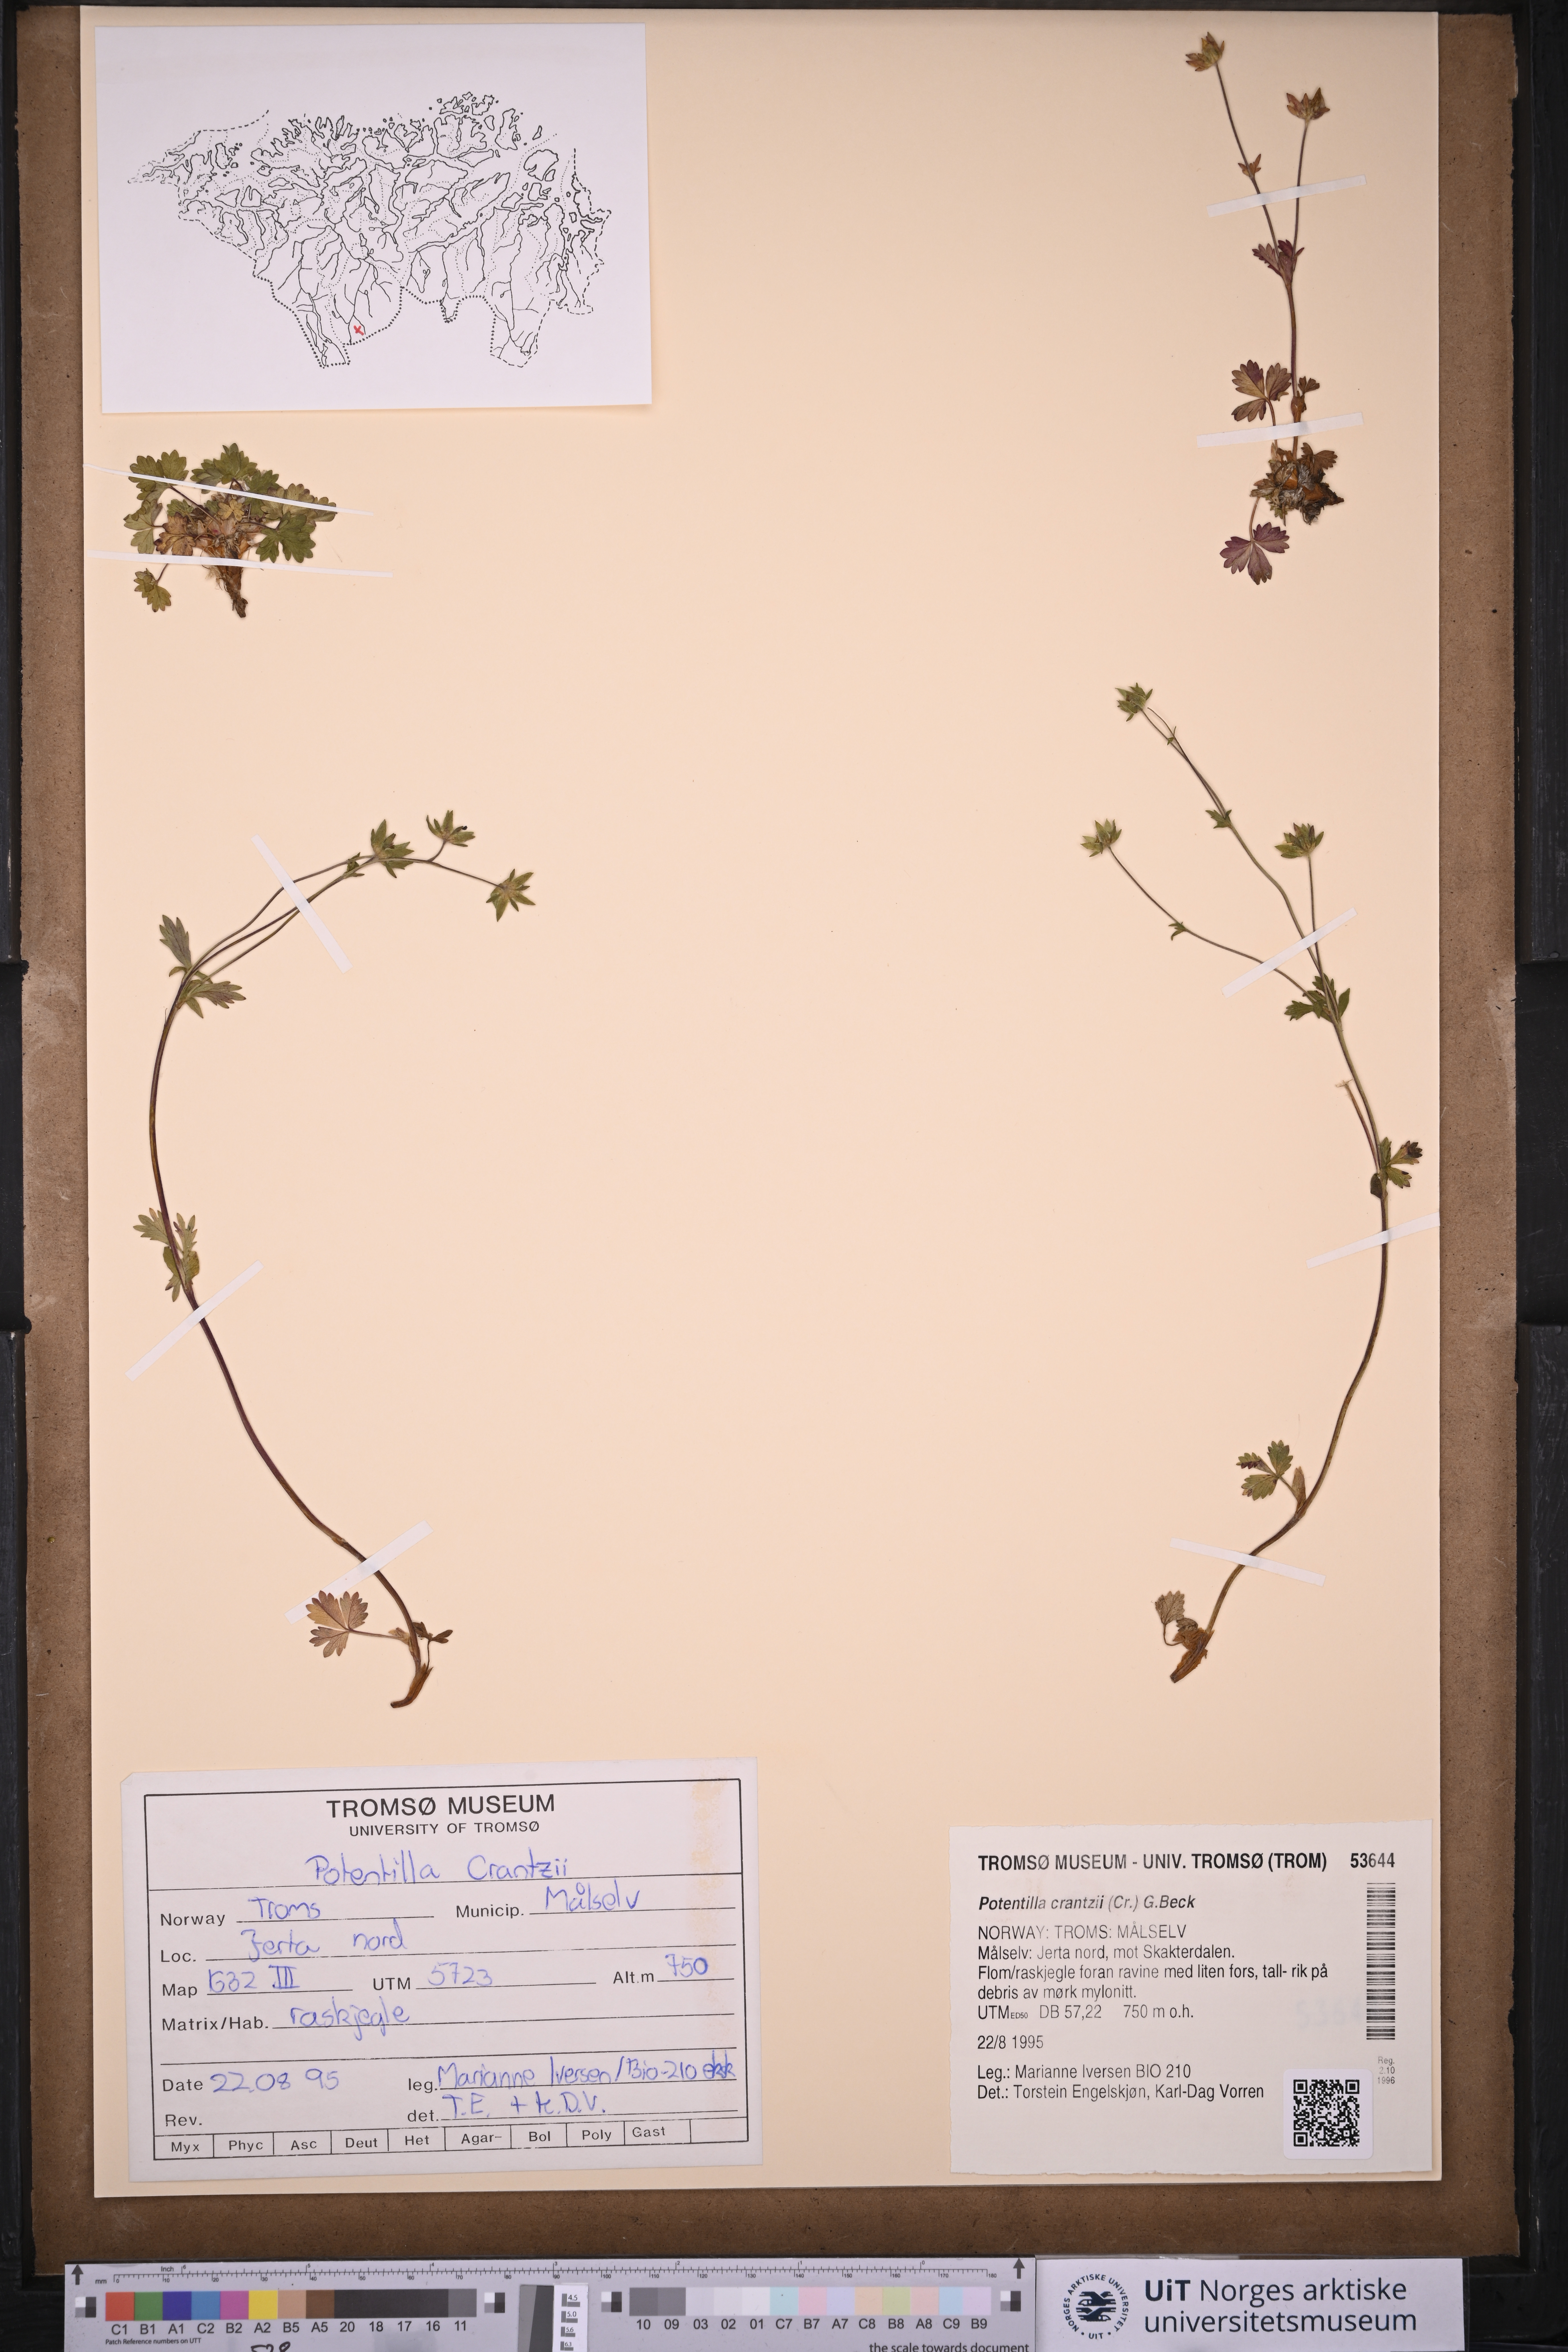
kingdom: Plantae
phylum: Tracheophyta
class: Magnoliopsida
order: Rosales
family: Rosaceae
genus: Potentilla
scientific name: Potentilla crantzii
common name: Alpine cinquefoil
